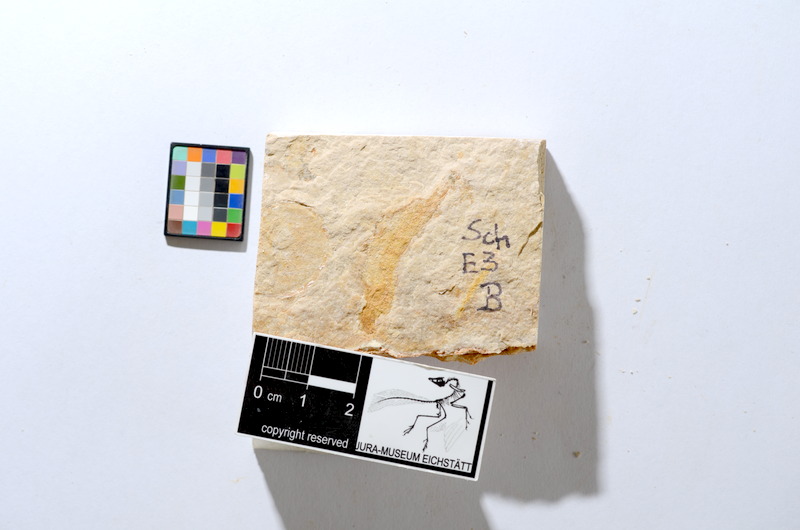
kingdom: Animalia
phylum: Chordata
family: Ascalaboidae
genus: Tharsis
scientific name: Tharsis dubius
